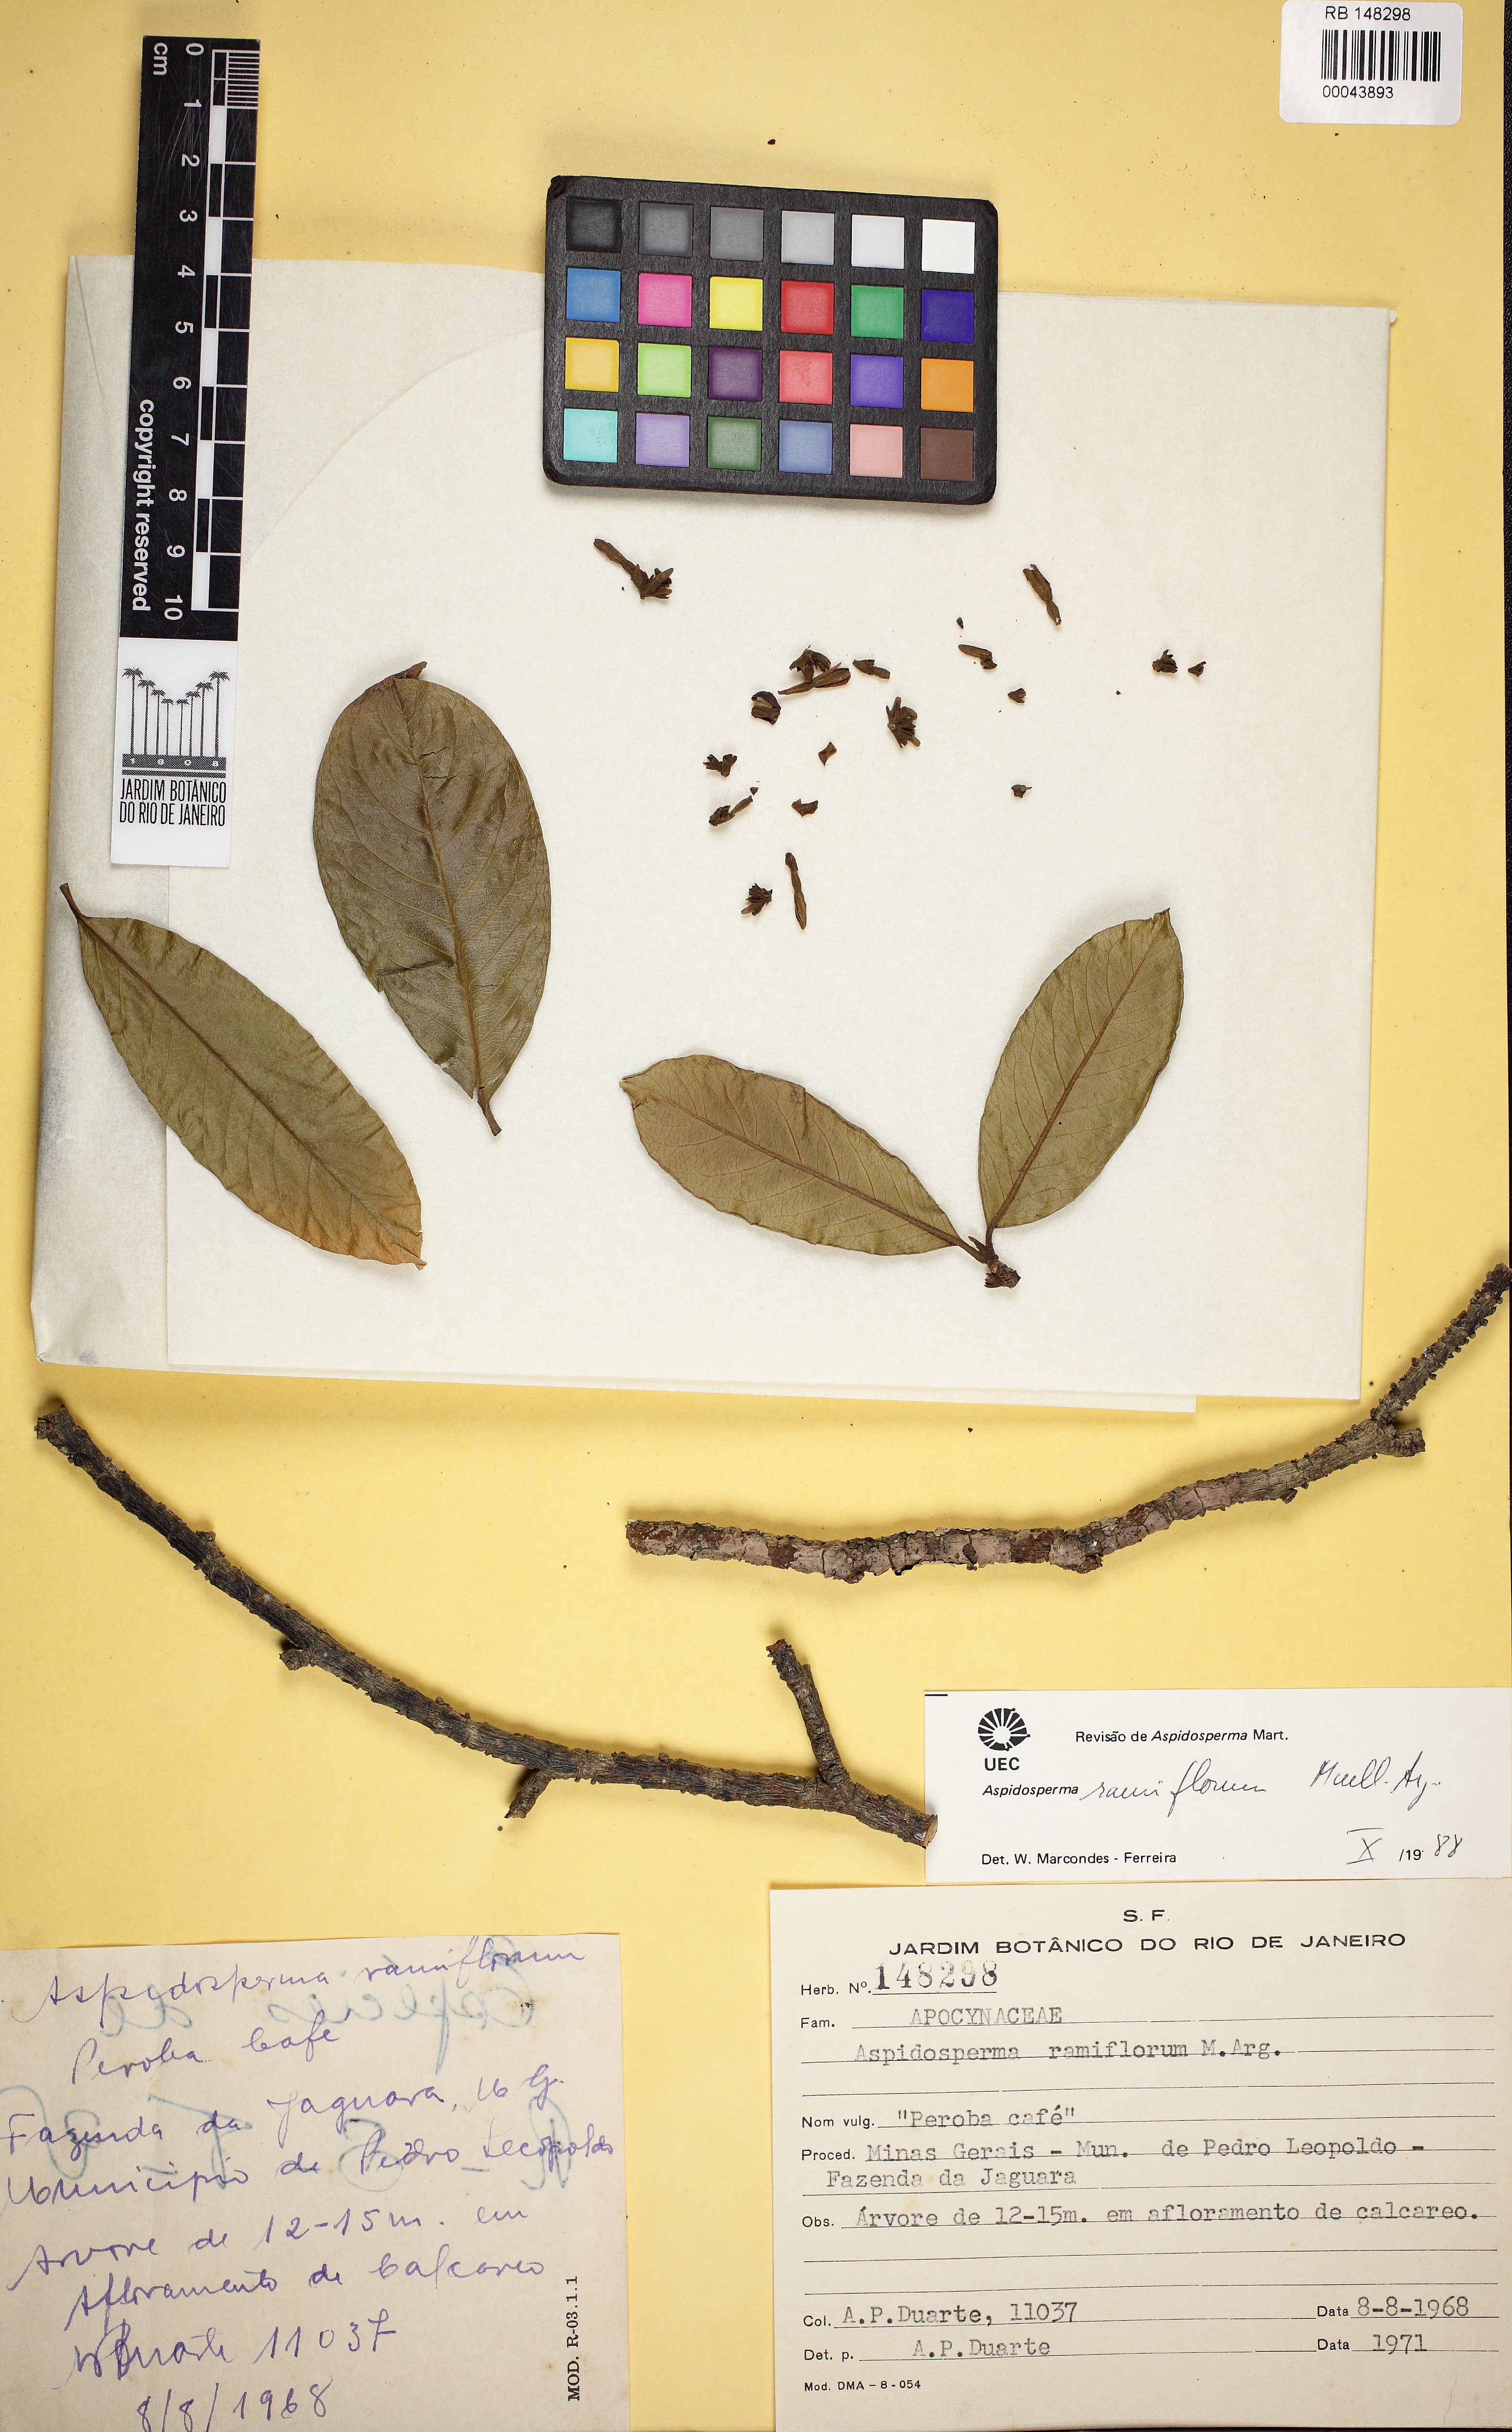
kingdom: Plantae
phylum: Tracheophyta
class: Magnoliopsida
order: Gentianales
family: Apocynaceae
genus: Aspidosperma
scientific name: Aspidosperma ramiflorum
